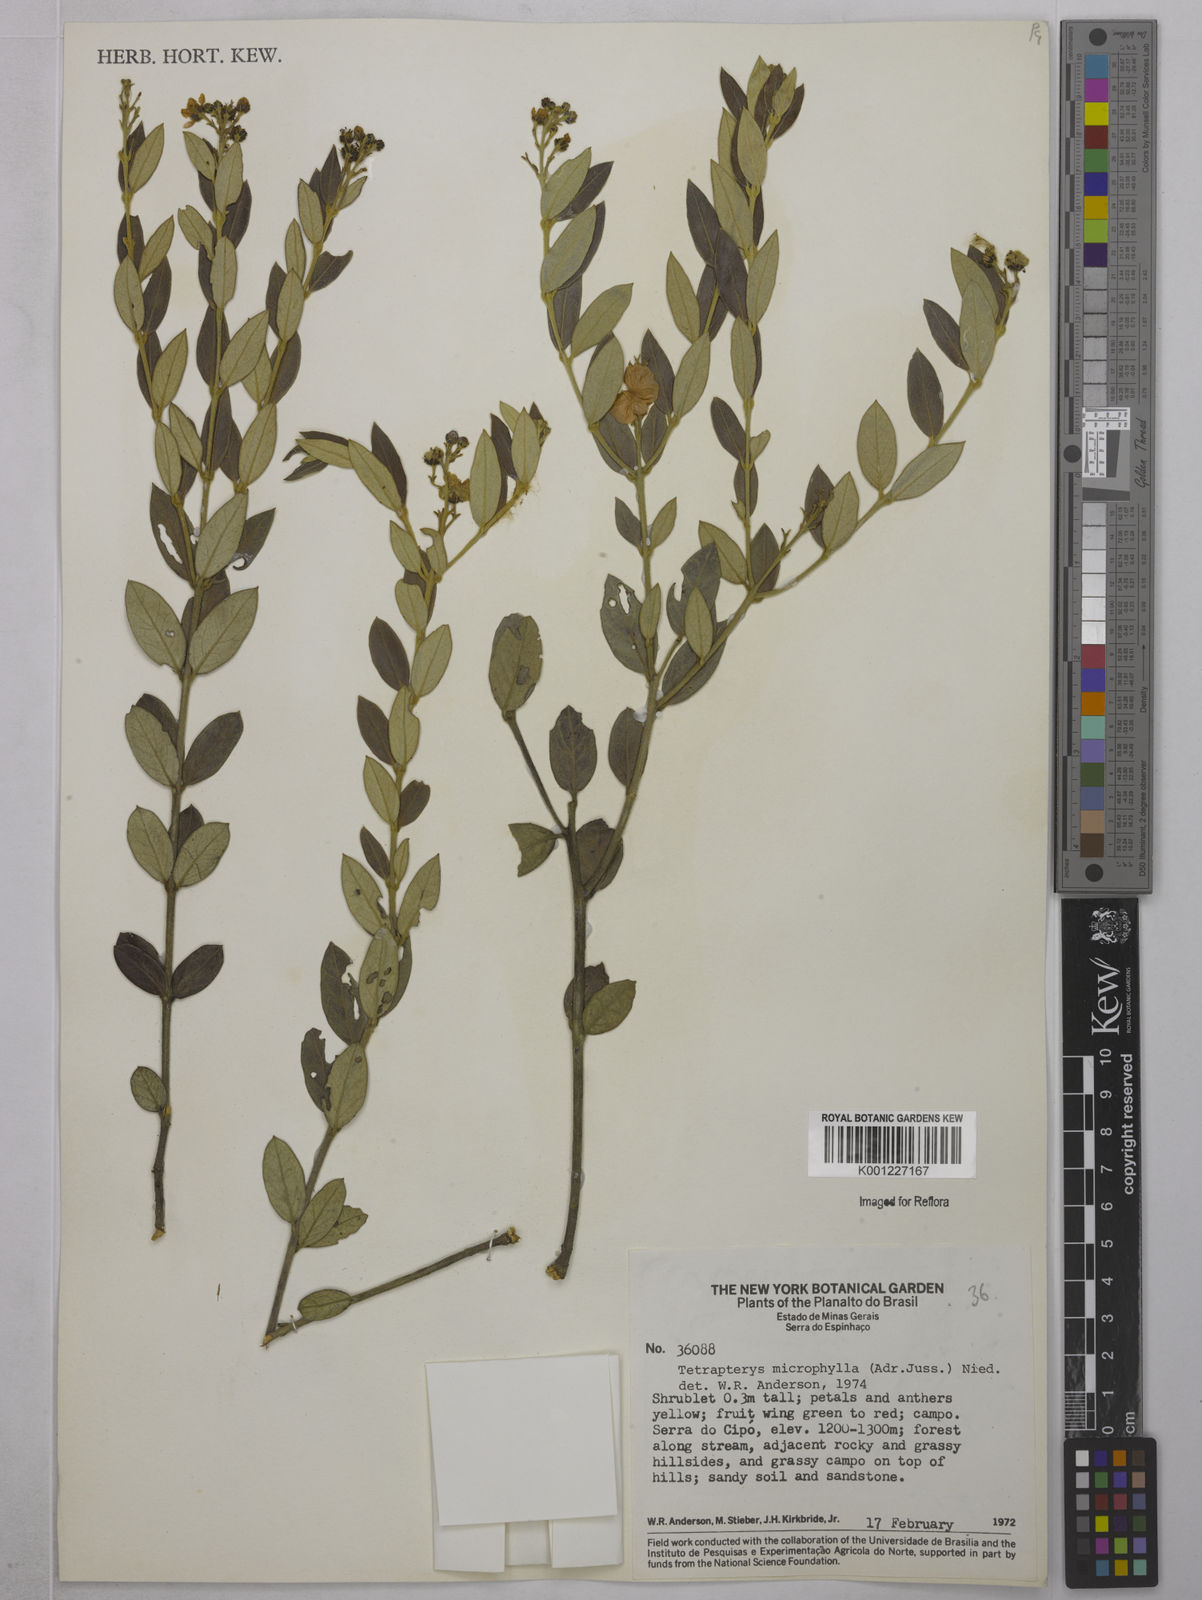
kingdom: Plantae
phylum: Tracheophyta
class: Magnoliopsida
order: Malpighiales
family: Malpighiaceae
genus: Glicophyllum
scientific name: Glicophyllum microphyllum
